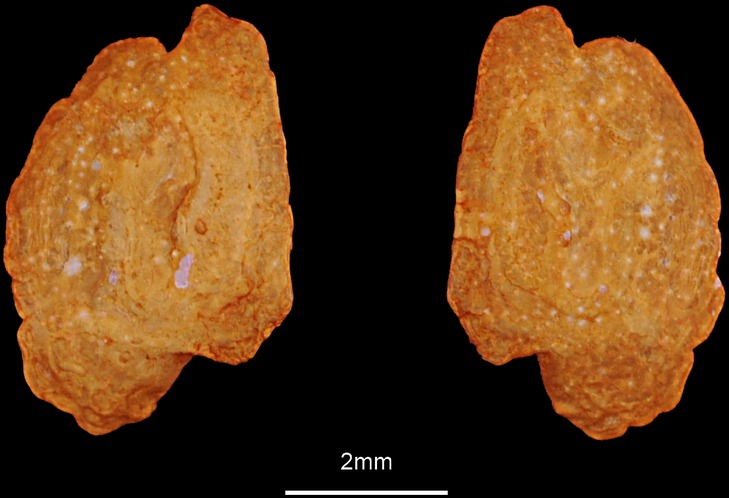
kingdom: Animalia
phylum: Chordata
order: Perciformes
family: Gobiidae
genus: Gobius
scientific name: Gobius niger
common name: Black goby
